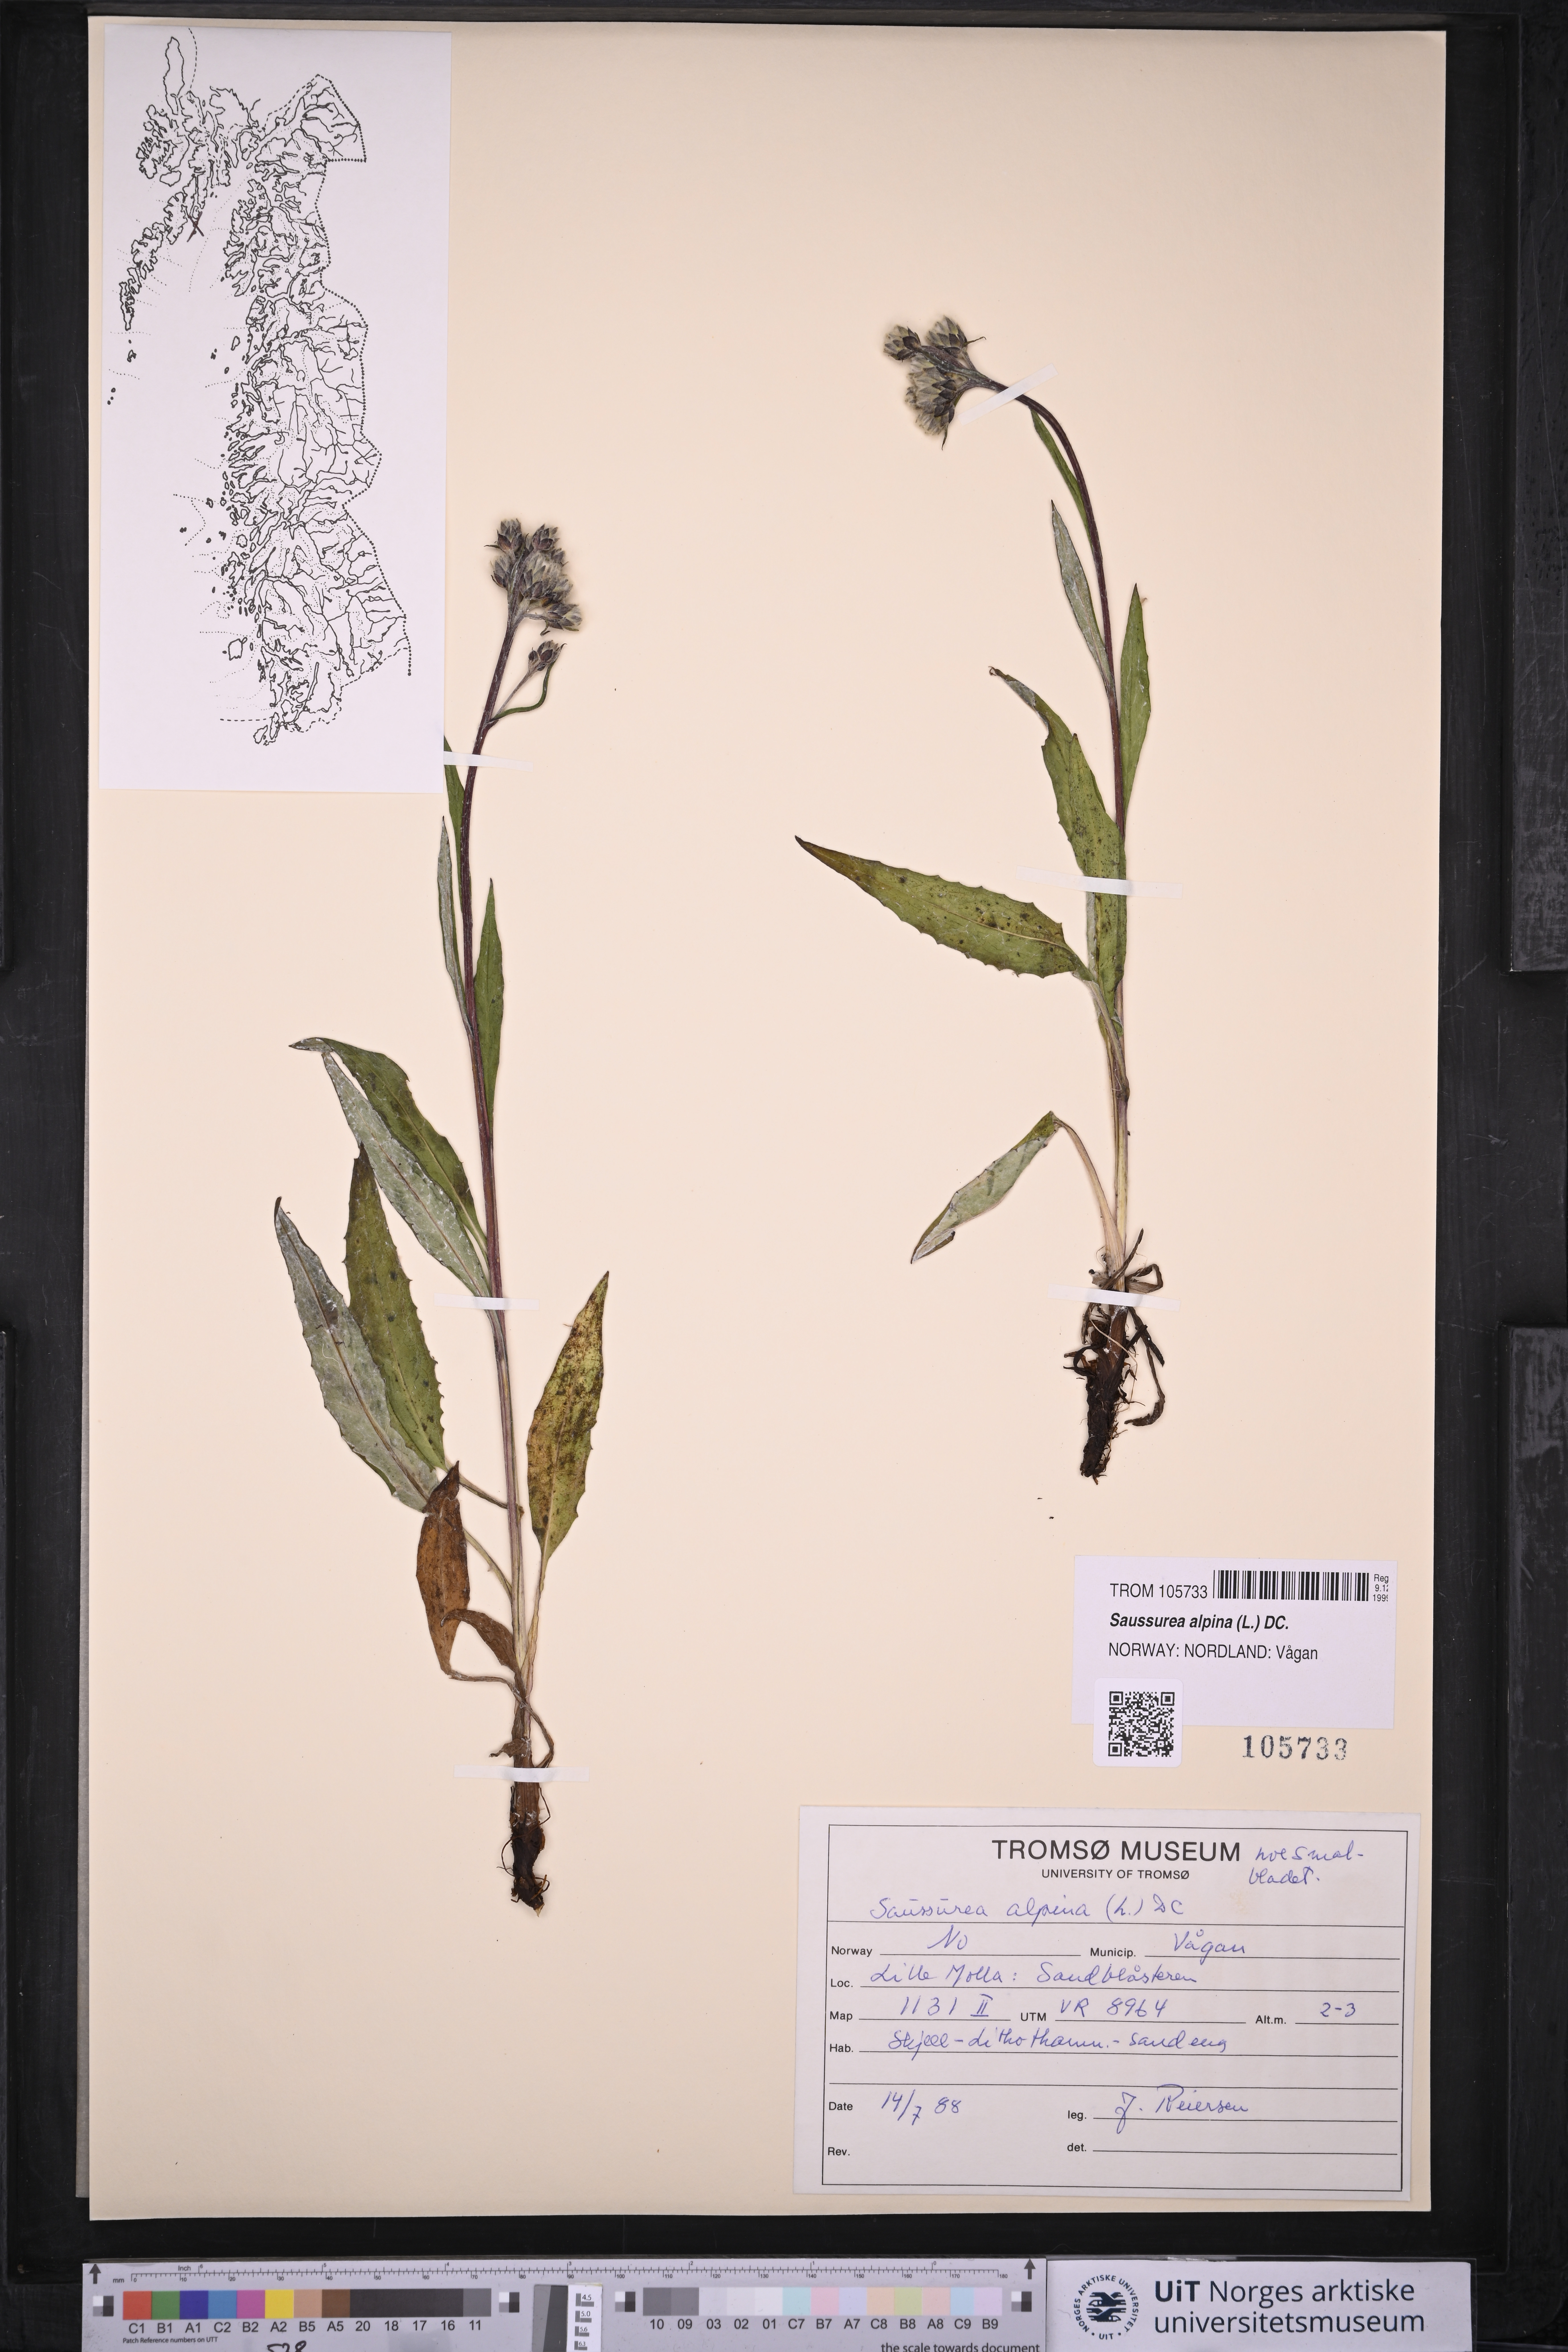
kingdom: Plantae
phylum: Tracheophyta
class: Magnoliopsida
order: Asterales
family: Asteraceae
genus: Saussurea
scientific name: Saussurea alpina
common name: Alpine saw-wort
